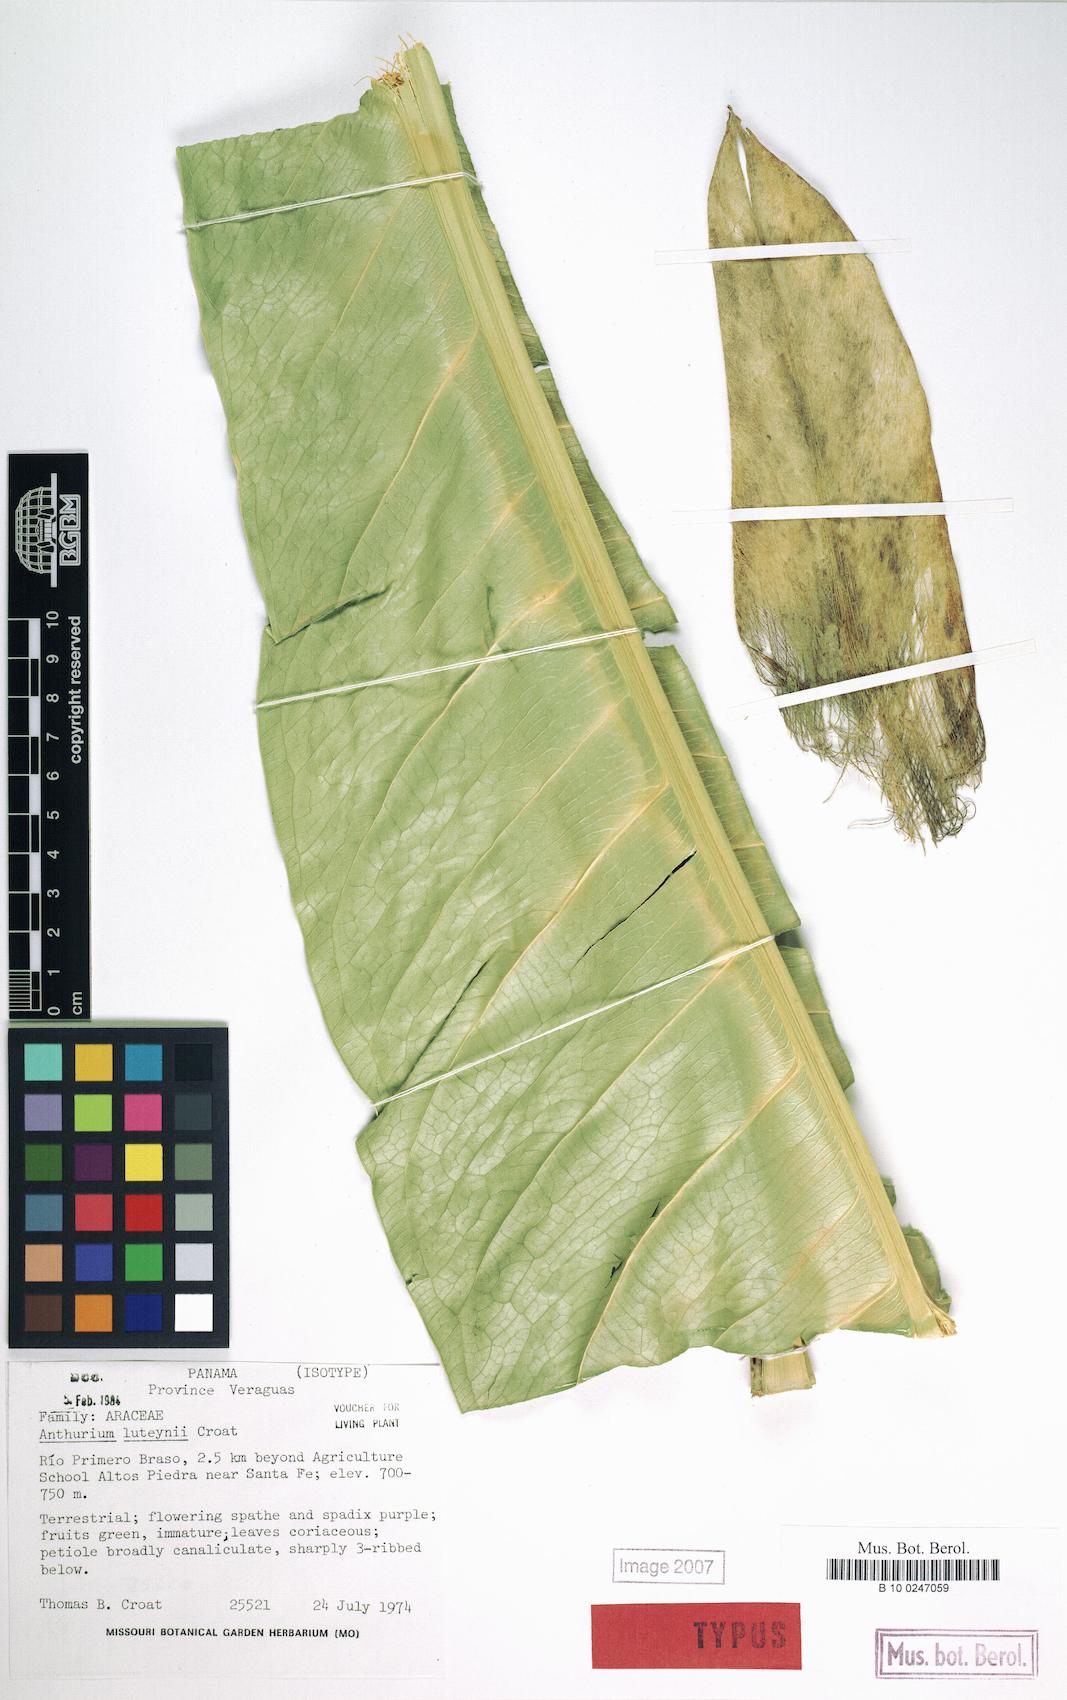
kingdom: Plantae
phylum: Tracheophyta
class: Liliopsida
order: Alismatales
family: Araceae
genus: Anthurium
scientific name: Anthurium luteynii
